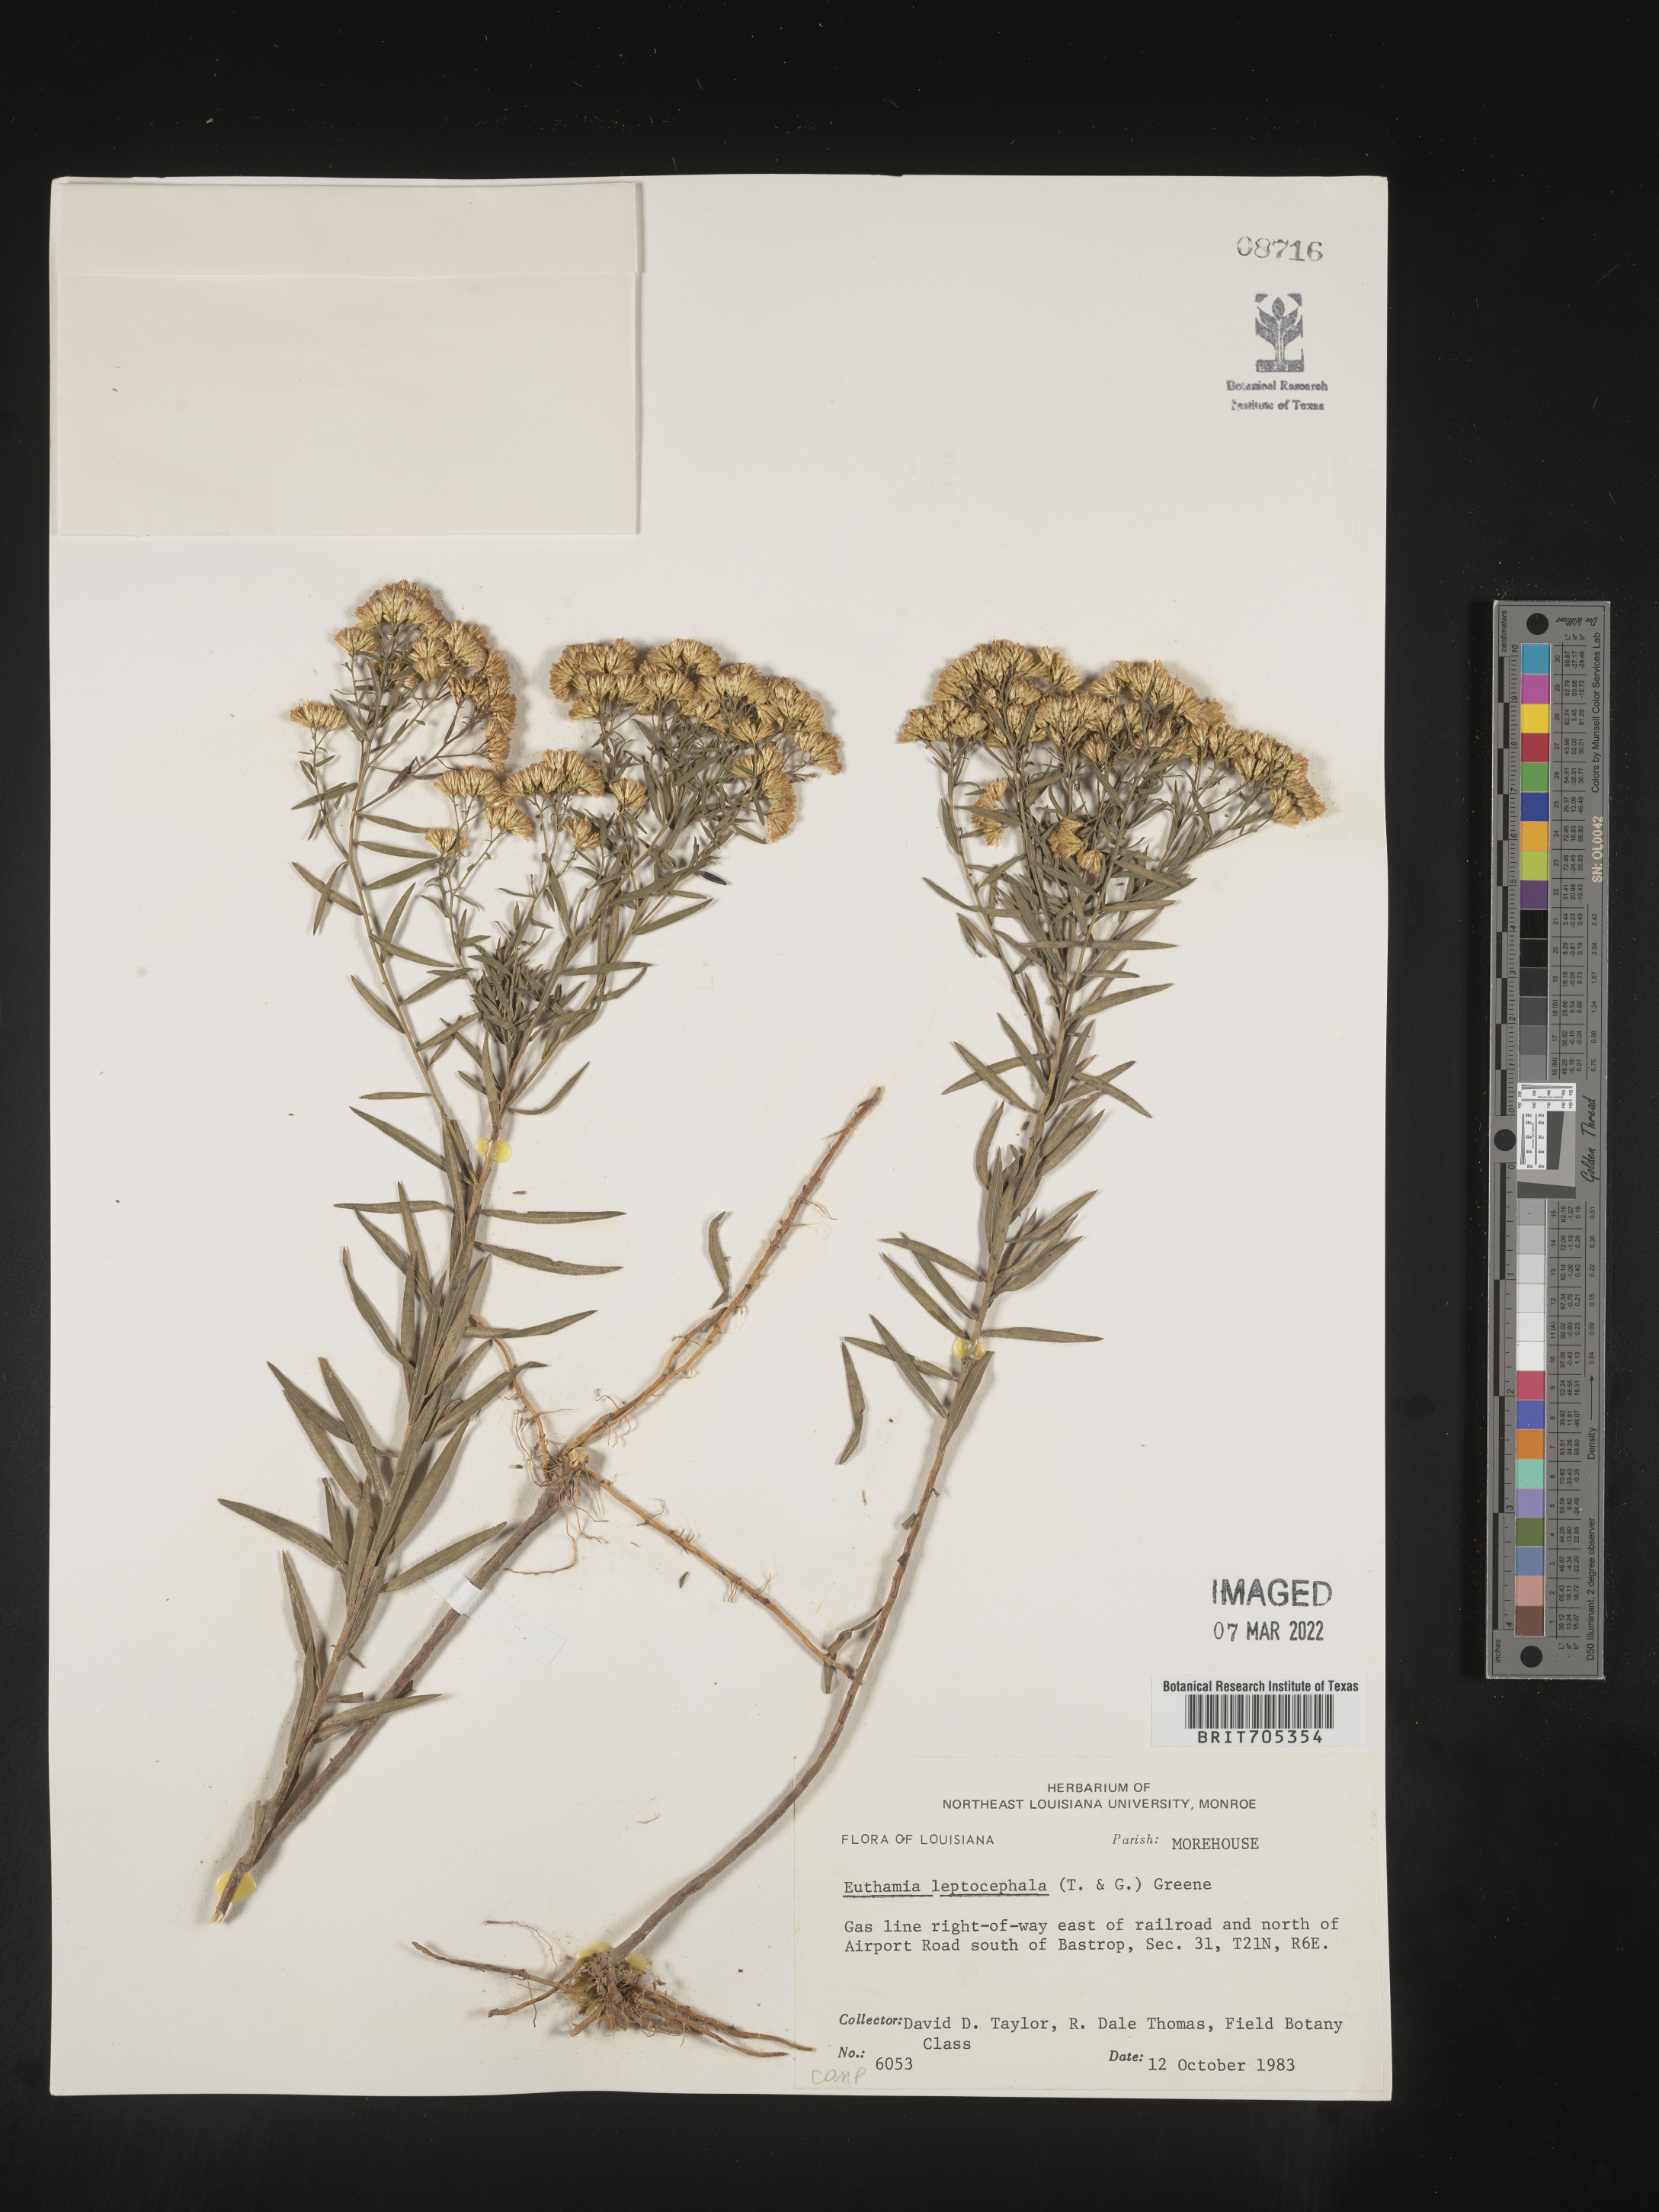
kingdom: Plantae
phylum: Tracheophyta
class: Magnoliopsida
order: Asterales
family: Asteraceae
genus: Euthamia
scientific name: Euthamia leptocephala
